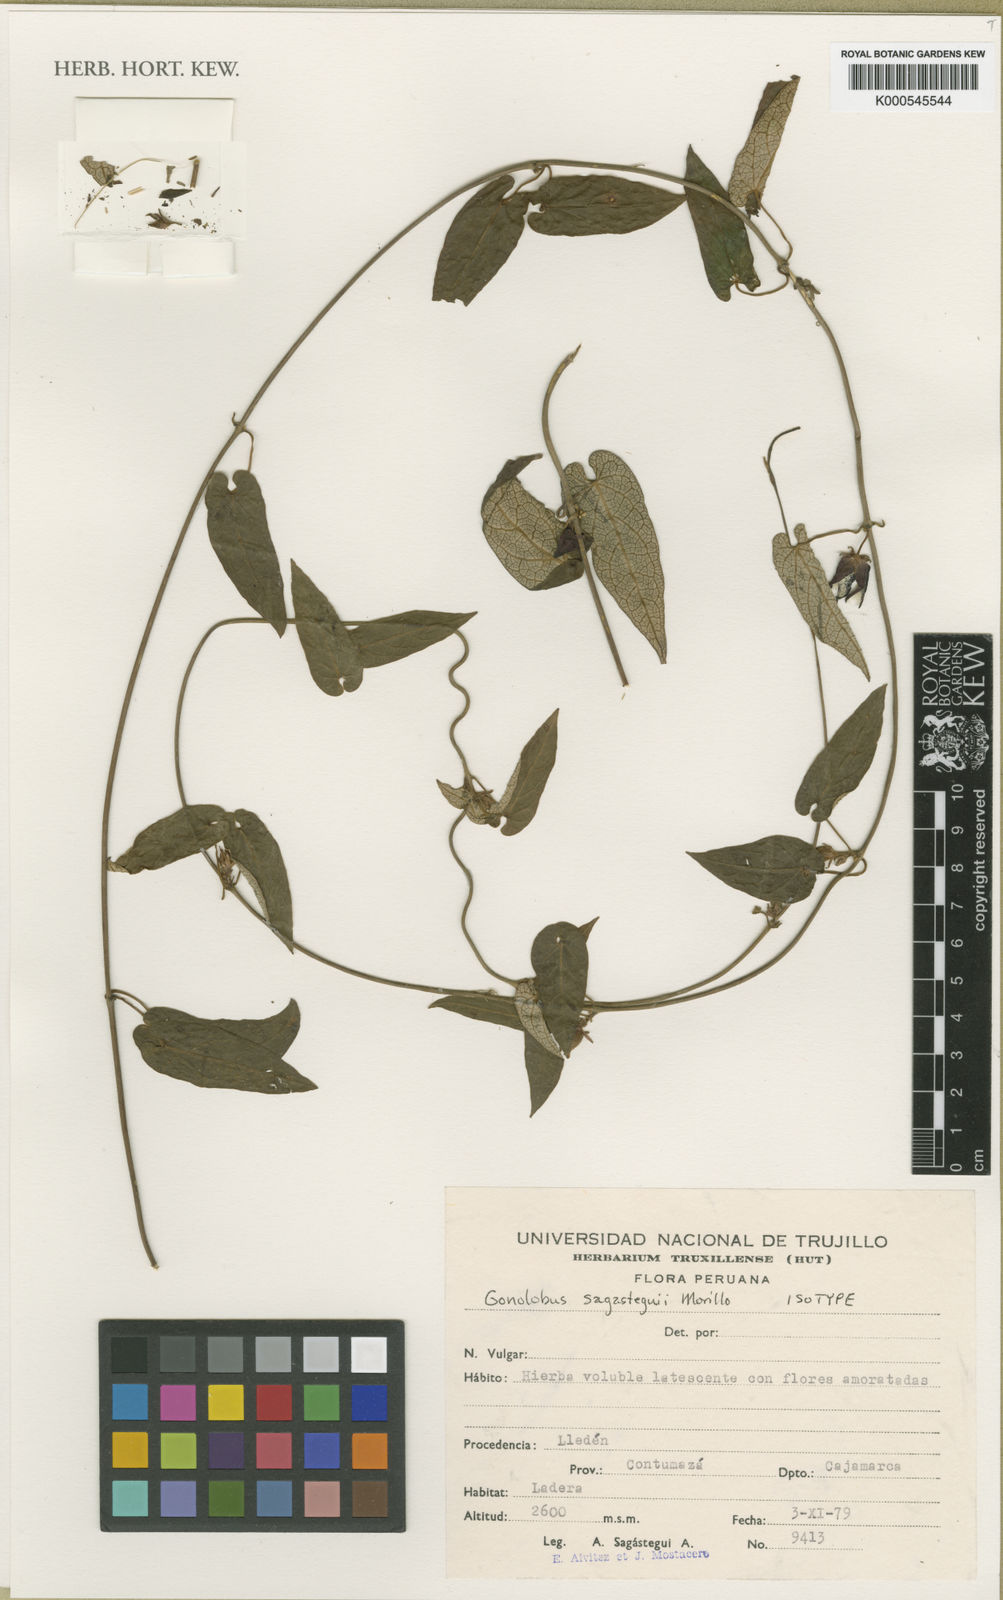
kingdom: Plantae
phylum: Tracheophyta
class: Magnoliopsida
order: Gentianales
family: Apocynaceae
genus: Gonolobus
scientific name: Gonolobus sagasteguii
